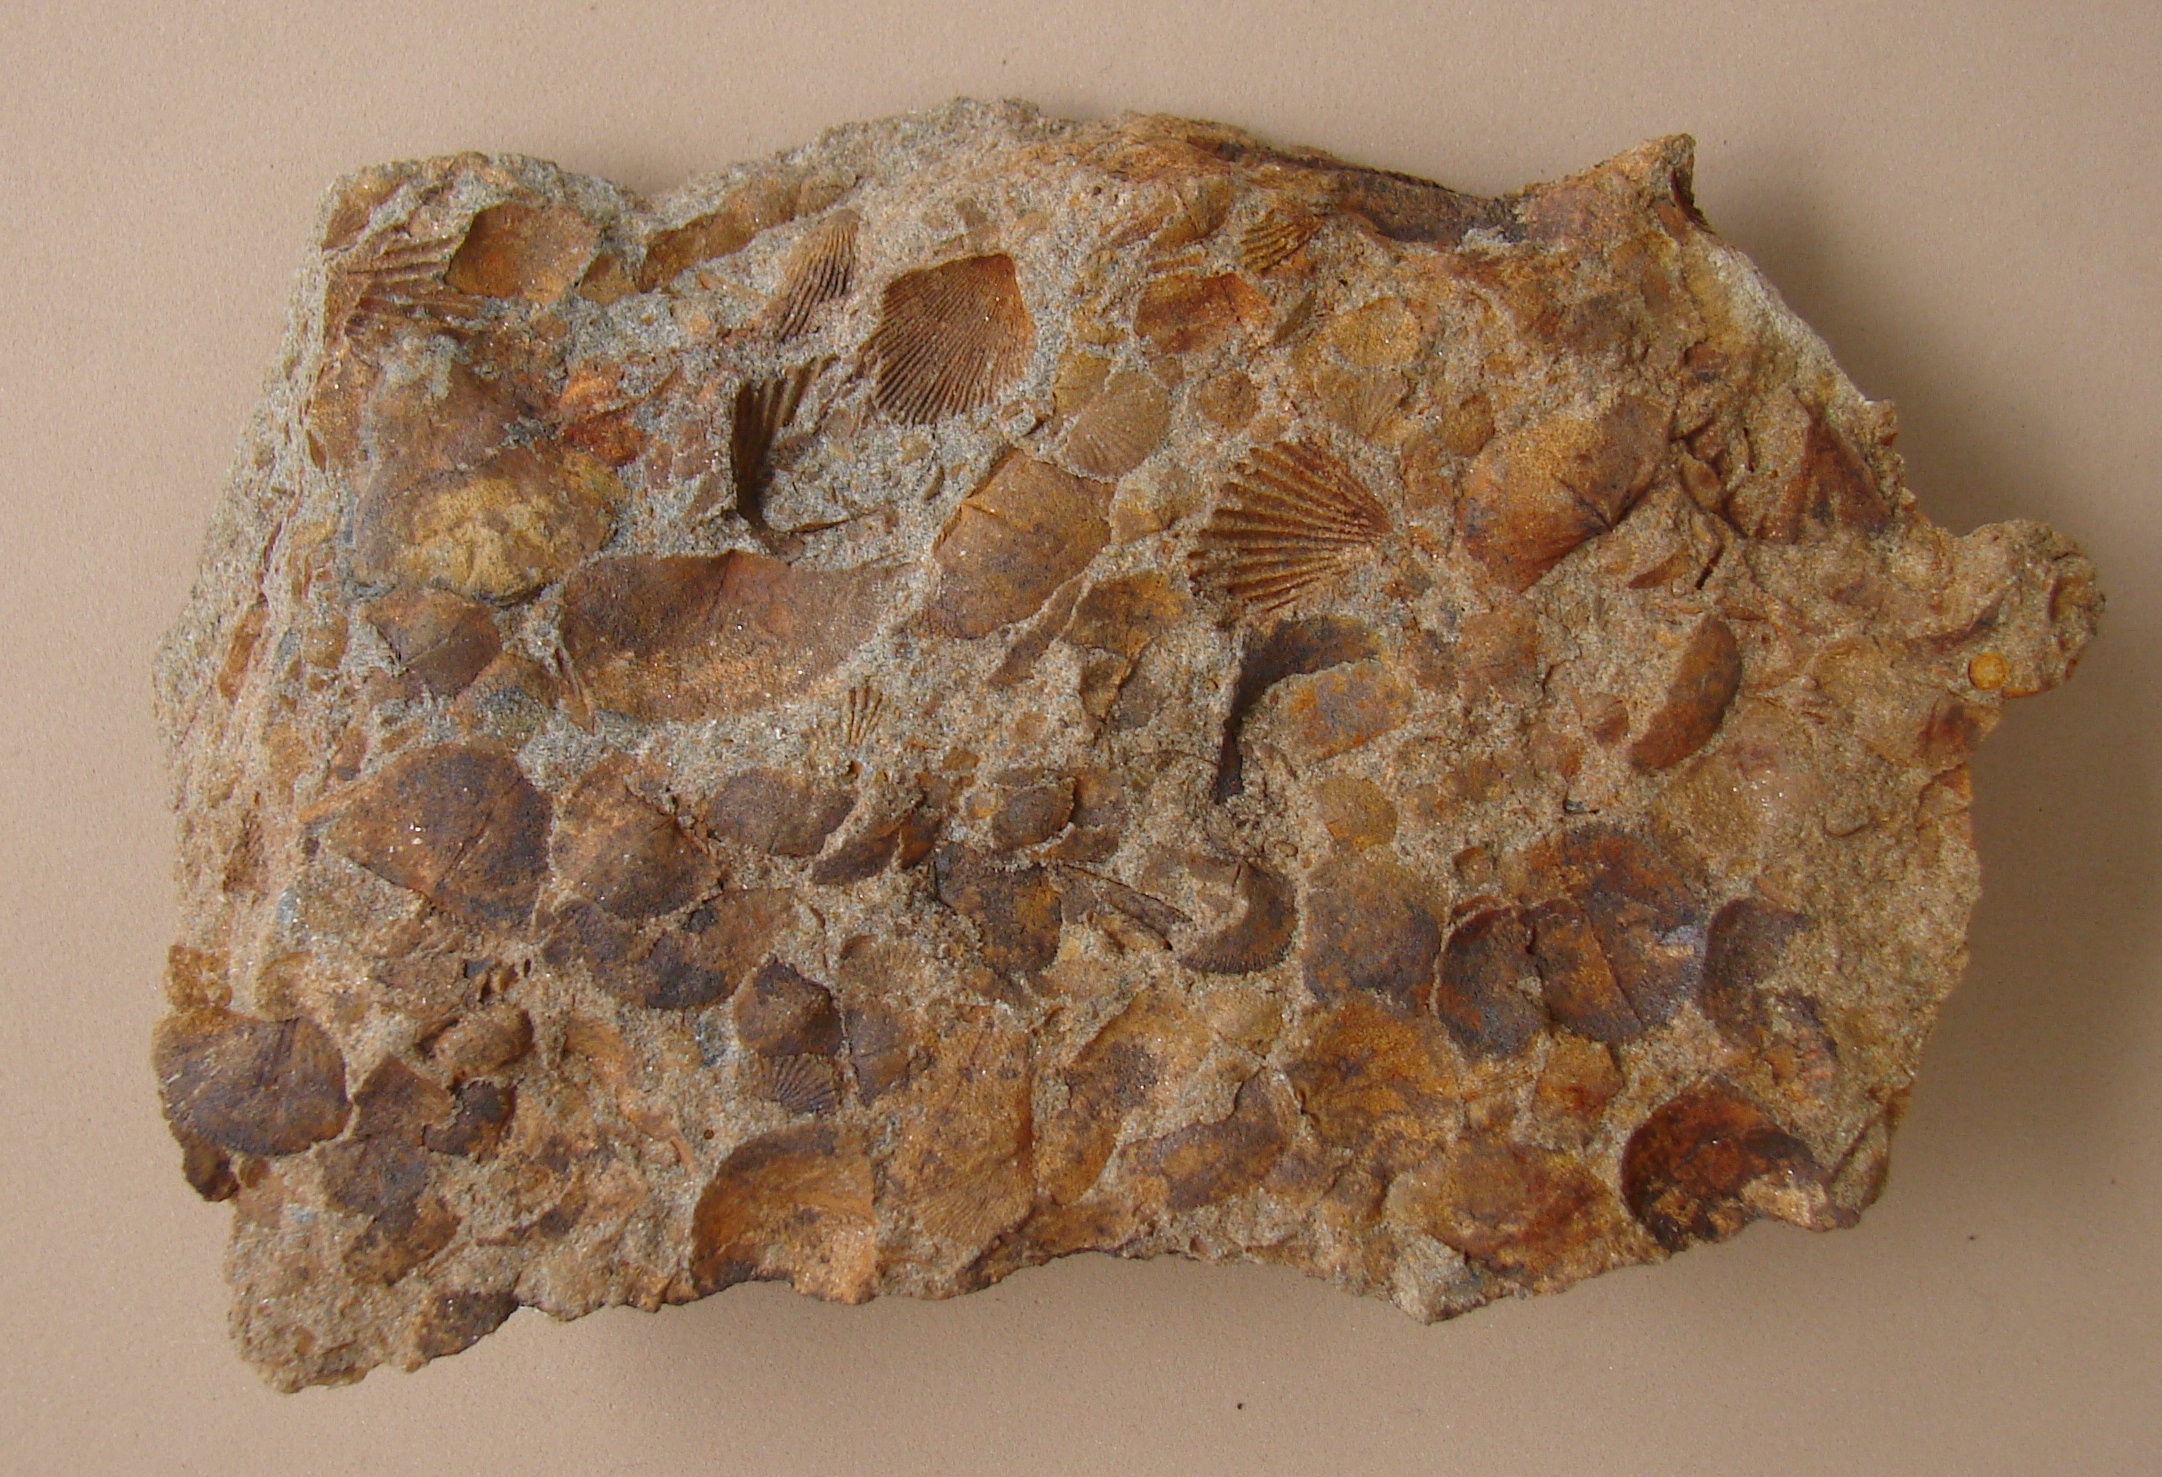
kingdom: Animalia
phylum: Brachiopoda
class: Rhynchonellata
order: Terebratulida
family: Mutationellidae
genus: Mutationella
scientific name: Mutationella
